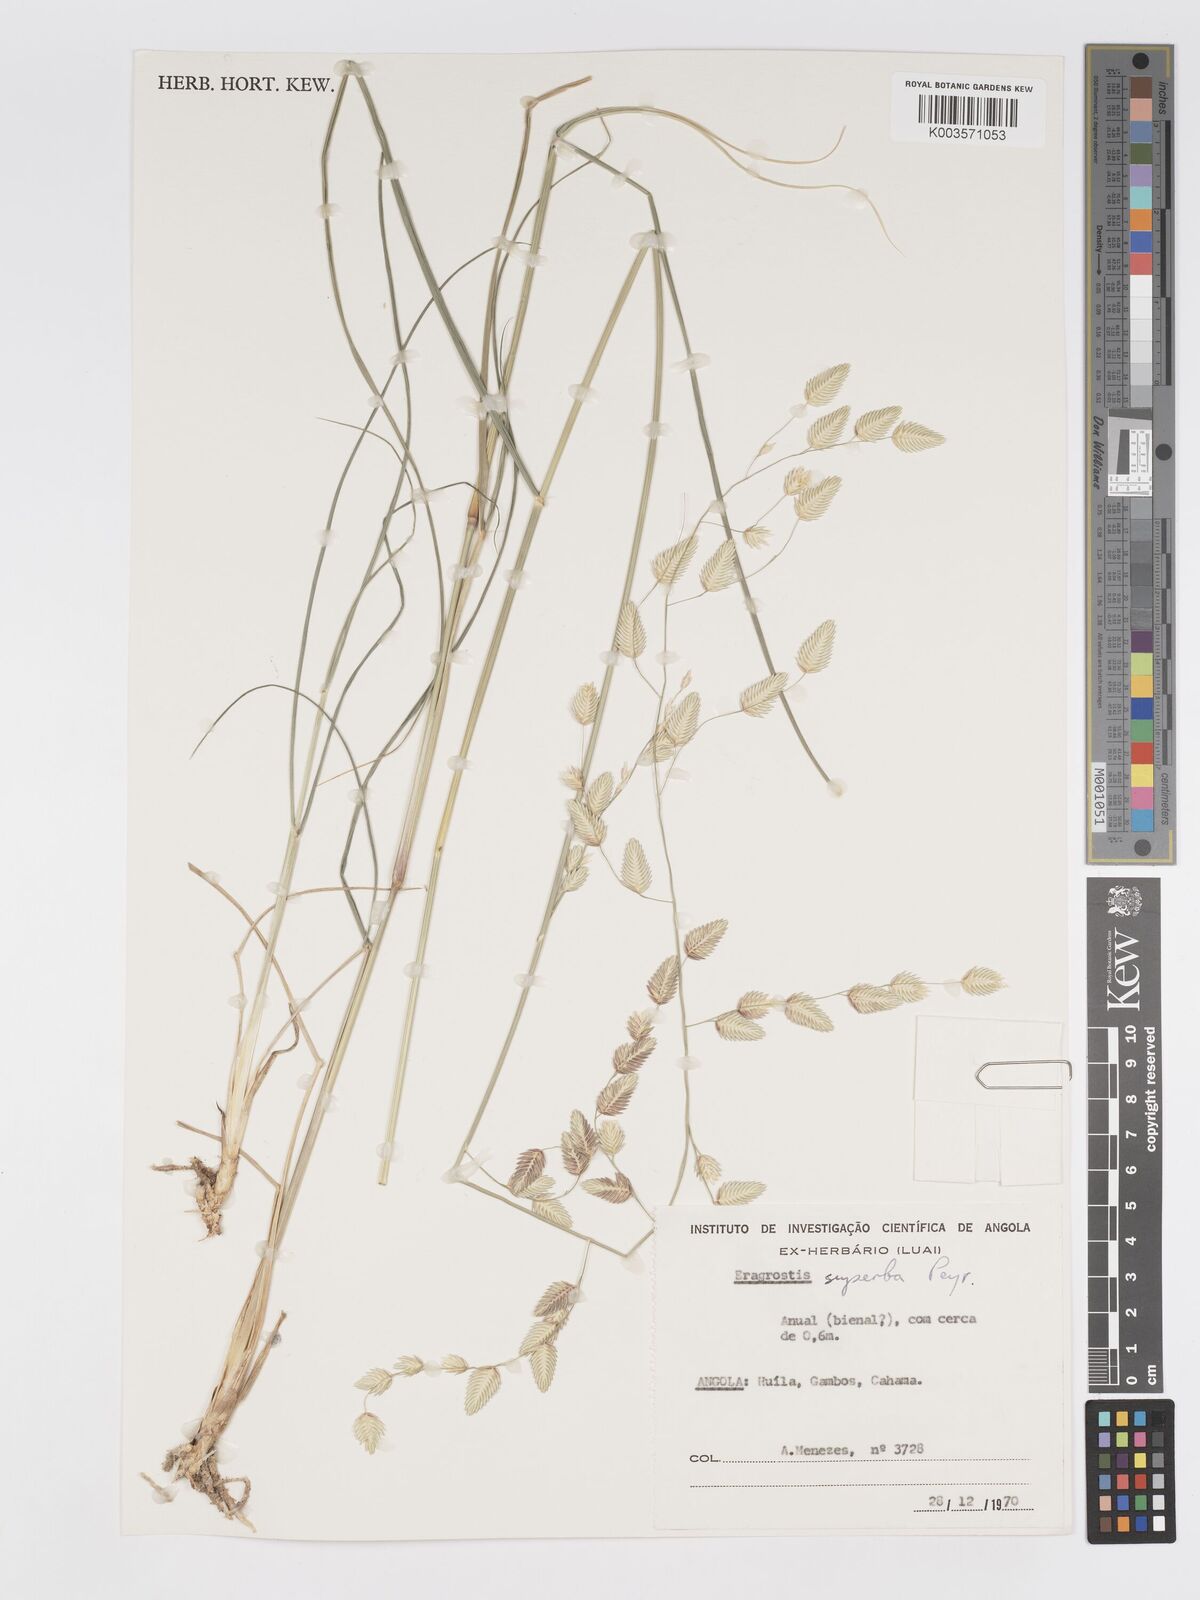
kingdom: Plantae
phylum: Tracheophyta
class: Liliopsida
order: Poales
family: Poaceae
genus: Eragrostis
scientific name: Eragrostis superba
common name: Wilman lovegrass
